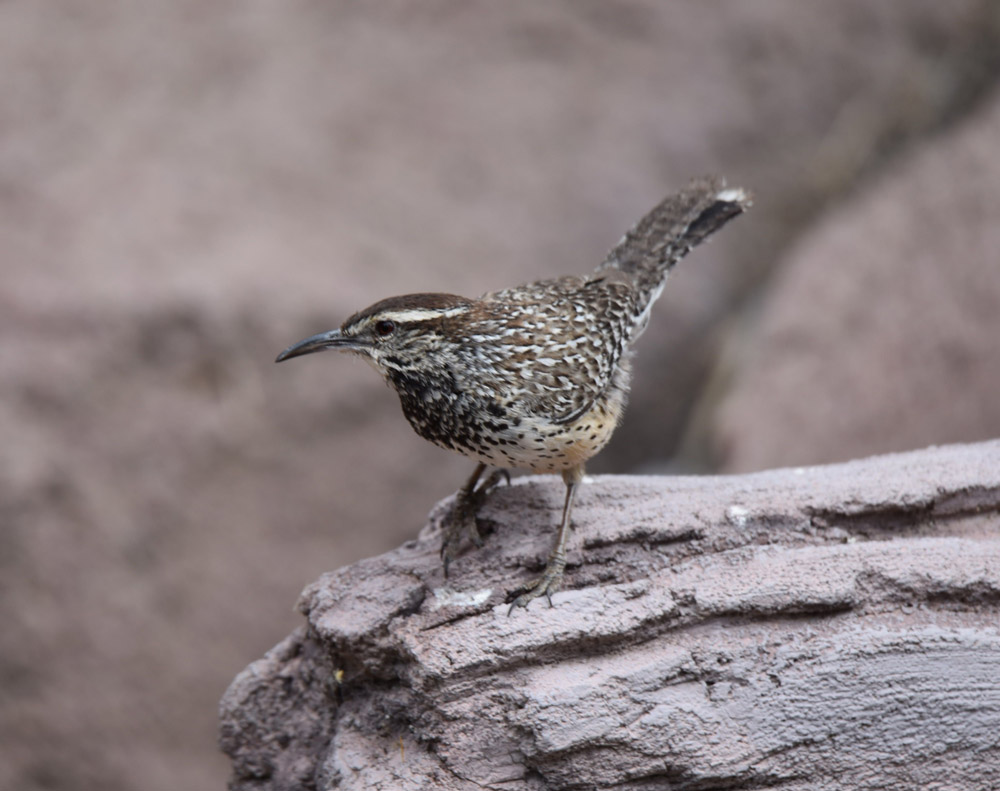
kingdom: Animalia
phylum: Chordata
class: Aves
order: Passeriformes
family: Troglodytidae
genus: Campylorhynchus
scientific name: Campylorhynchus brunneicapillus
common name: Cactus wren
